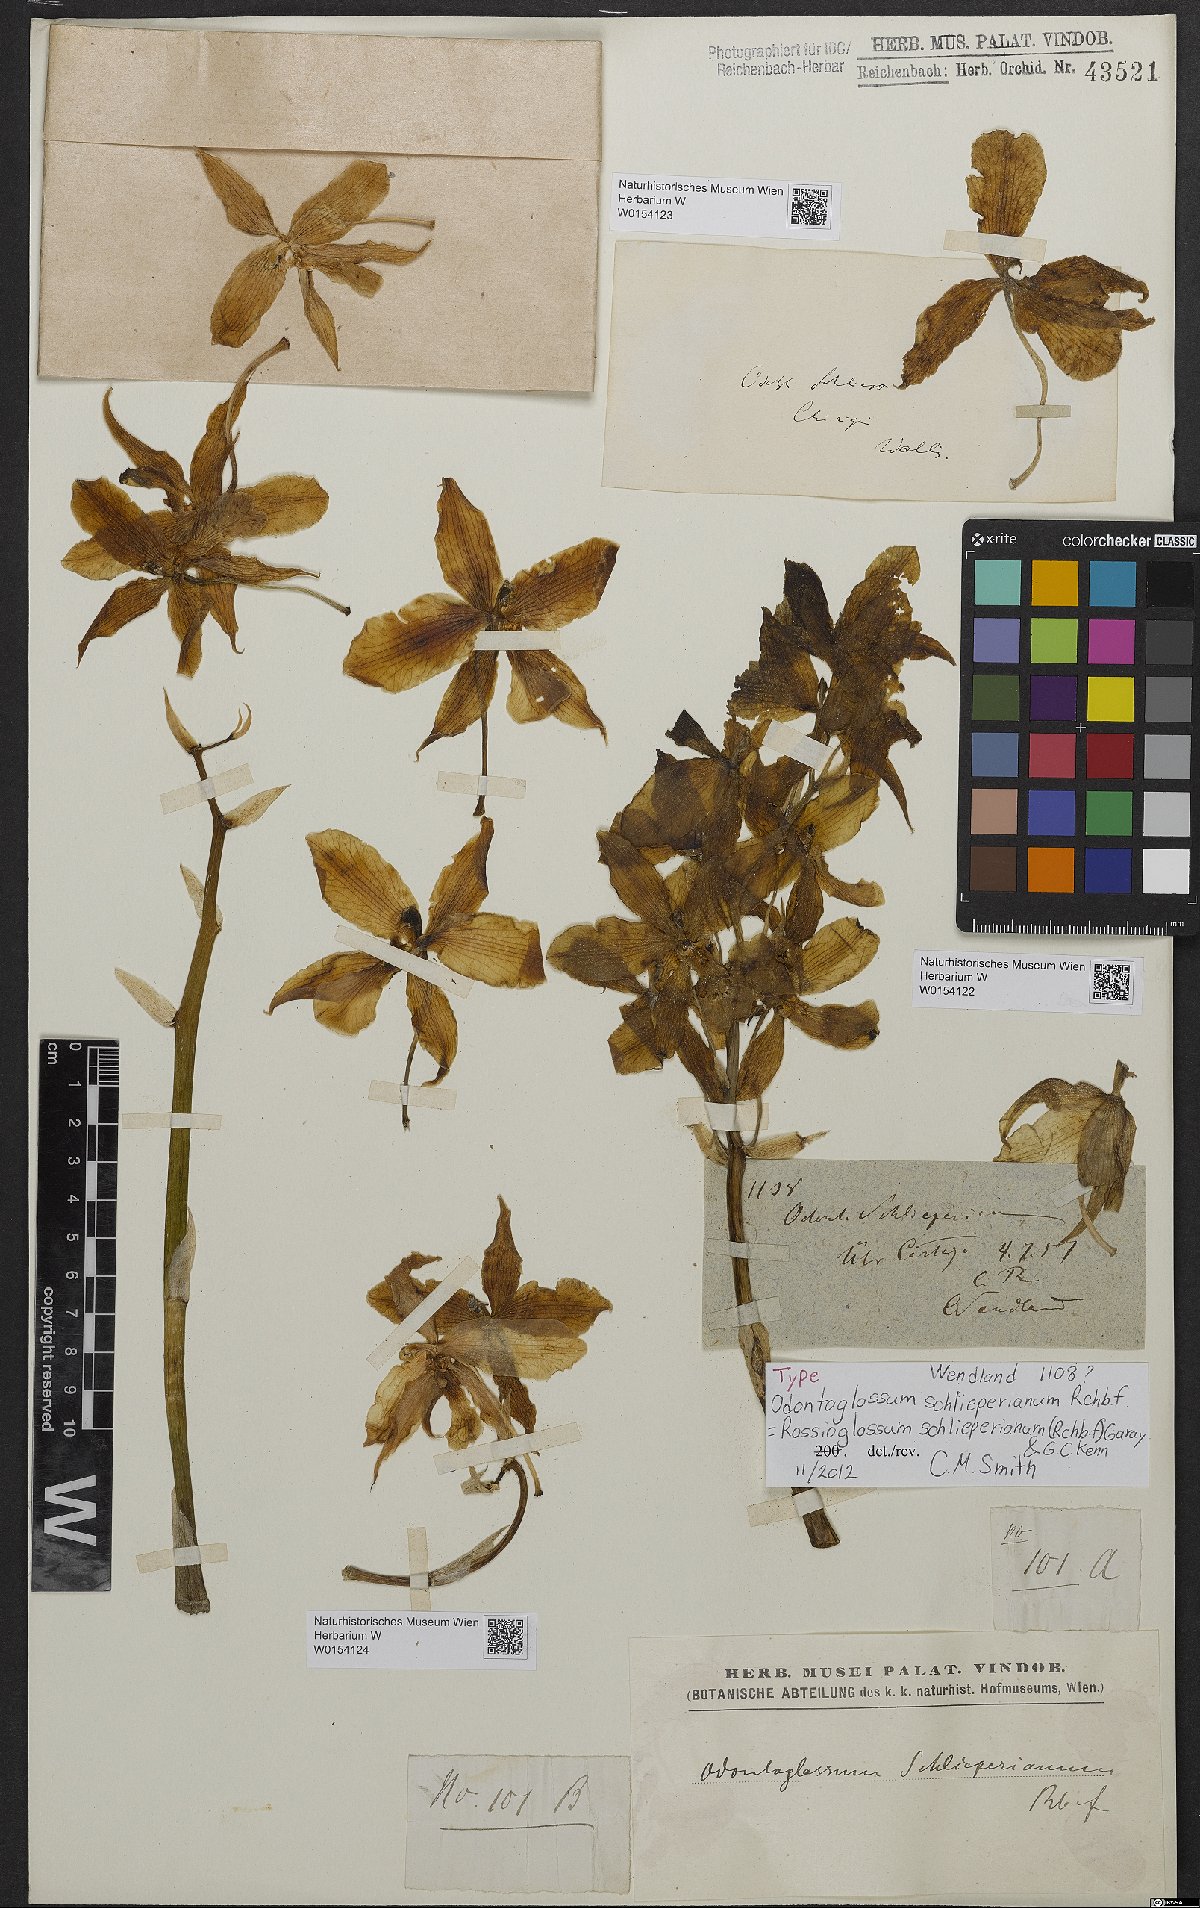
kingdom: Plantae
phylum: Tracheophyta
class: Liliopsida
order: Asparagales
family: Orchidaceae
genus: Rossioglossum
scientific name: Rossioglossum schlieperianum
